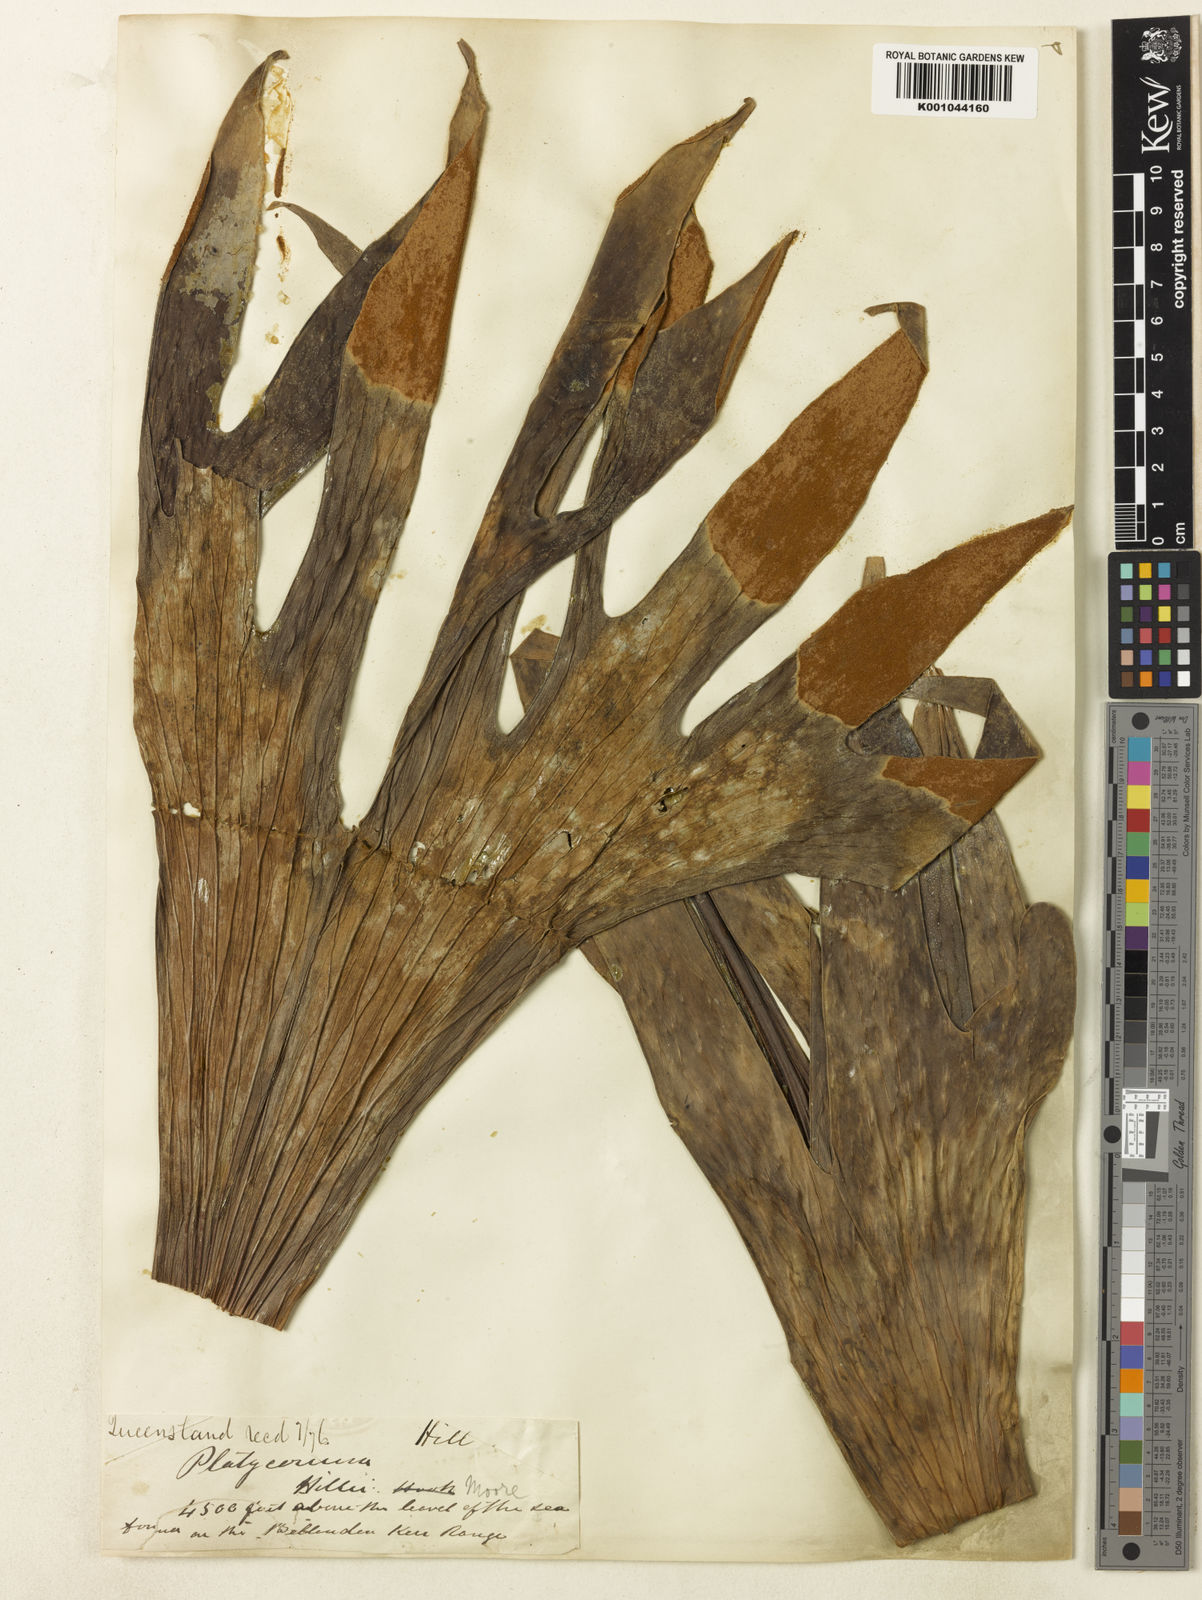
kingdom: Plantae
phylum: Tracheophyta
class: Polypodiopsida
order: Polypodiales
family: Polypodiaceae
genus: Platycerium
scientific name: Platycerium hillii
